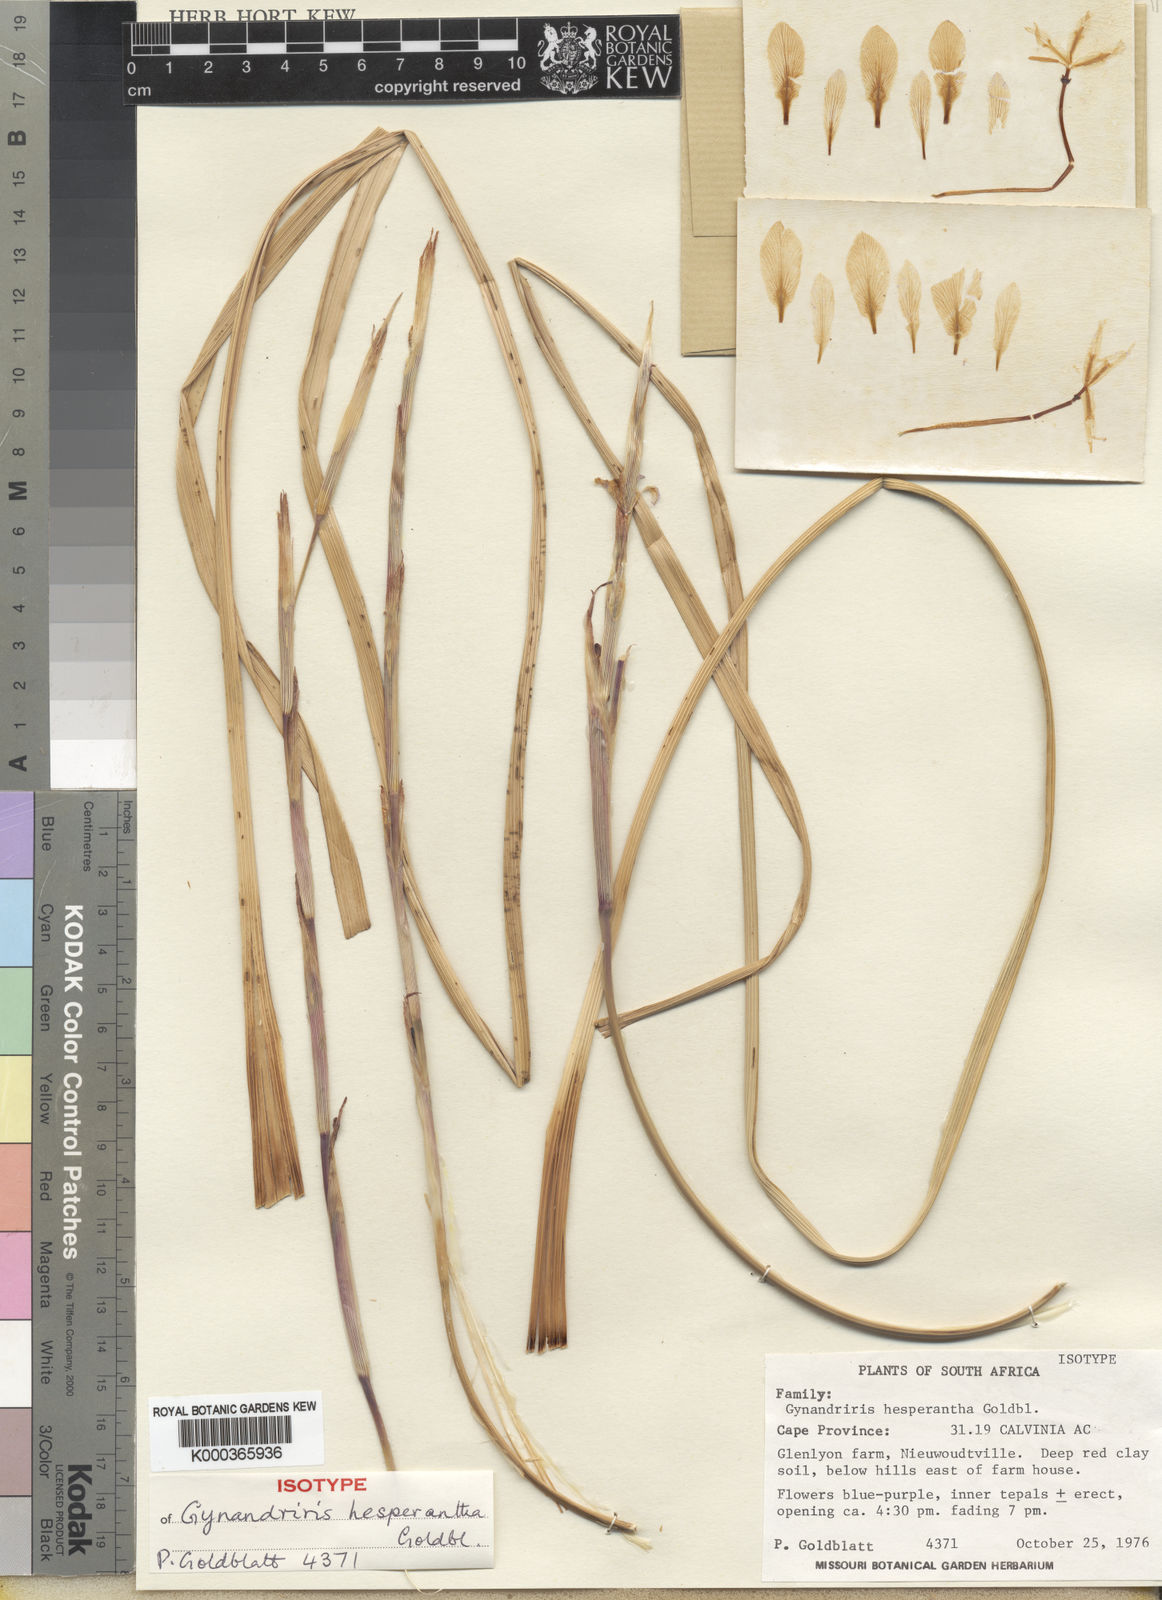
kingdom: Plantae
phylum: Tracheophyta
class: Liliopsida
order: Asparagales
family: Iridaceae
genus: Moraea
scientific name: Moraea hesperantha
